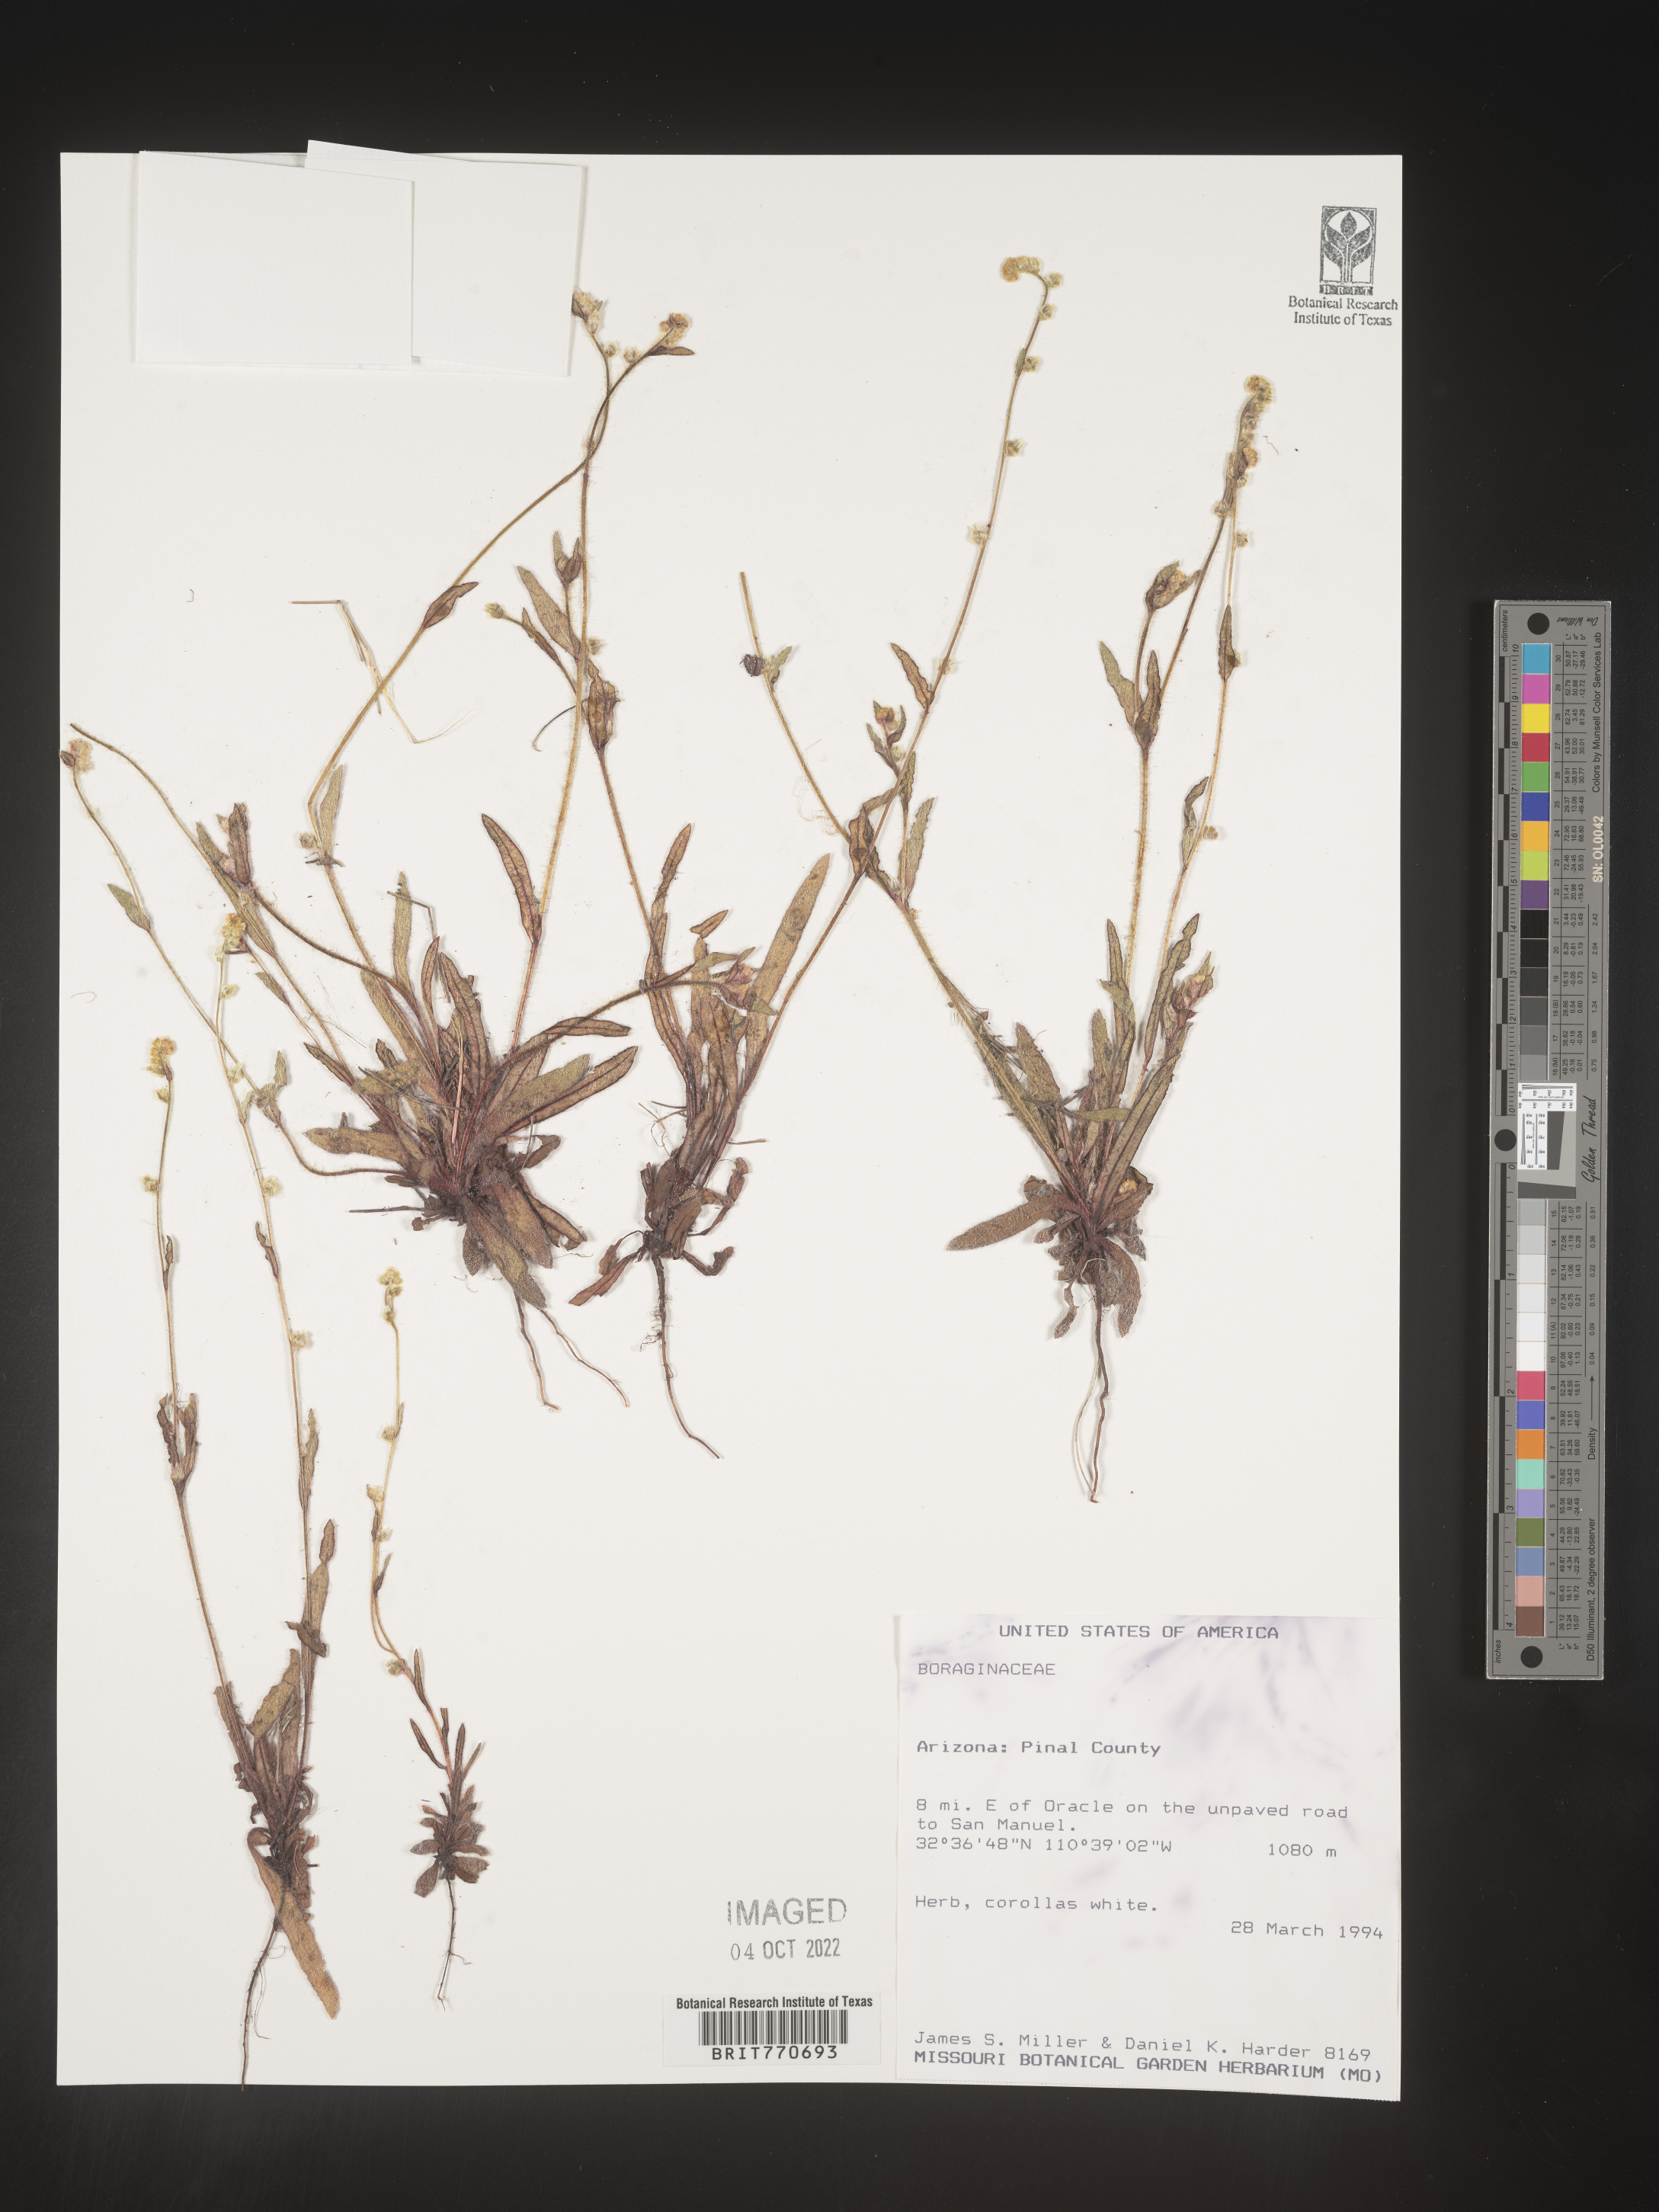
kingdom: Plantae
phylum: Tracheophyta
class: Magnoliopsida
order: Boraginales
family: Boraginaceae
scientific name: Boraginaceae
